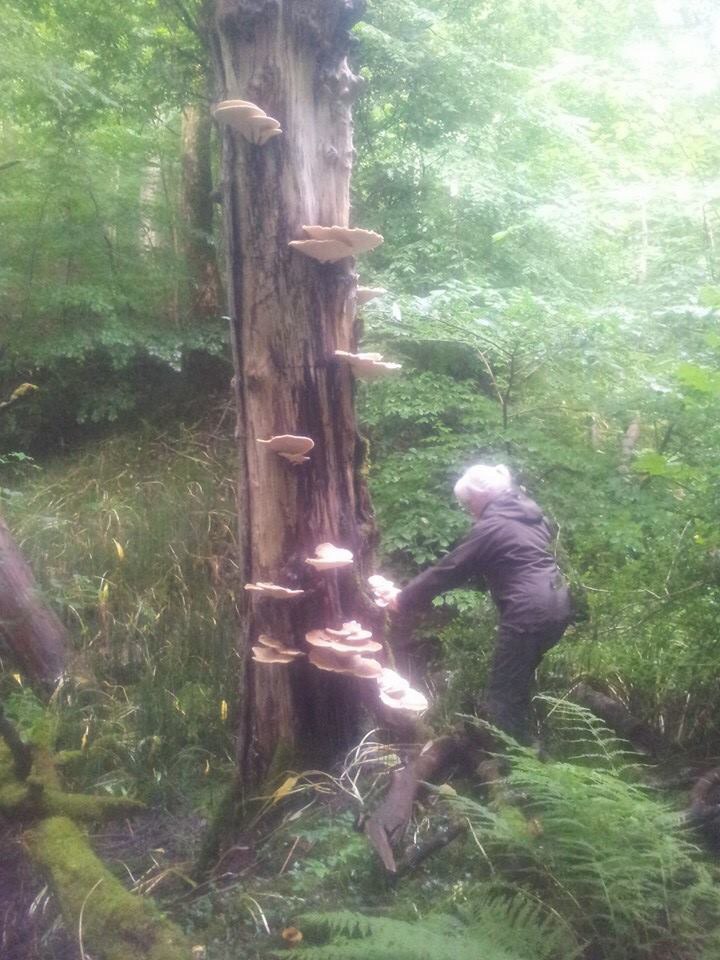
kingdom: Fungi
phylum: Basidiomycota
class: Agaricomycetes
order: Polyporales
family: Polyporaceae
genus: Cerioporus
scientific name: Cerioporus squamosus
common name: skællet stilkporesvamp
